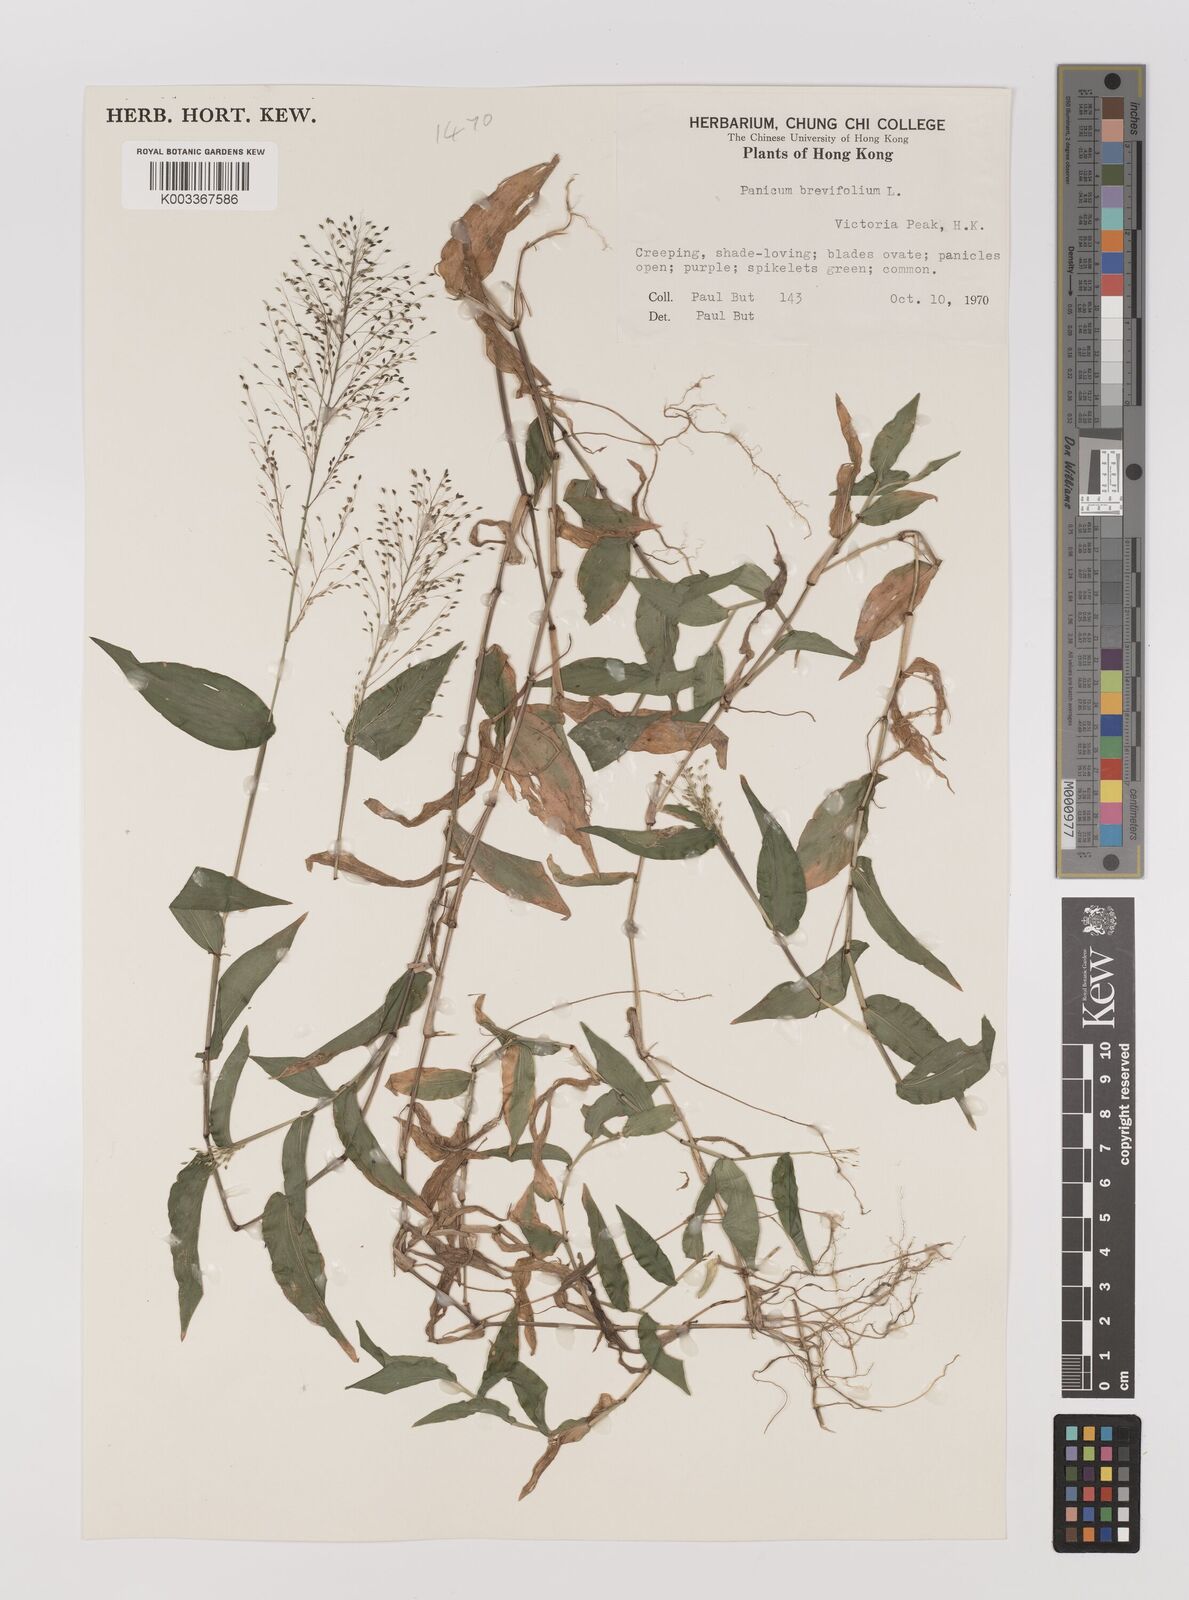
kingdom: Plantae
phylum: Tracheophyta
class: Liliopsida
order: Poales
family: Poaceae
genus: Panicum
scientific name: Panicum brevifolium
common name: Shortleaf panic grass
